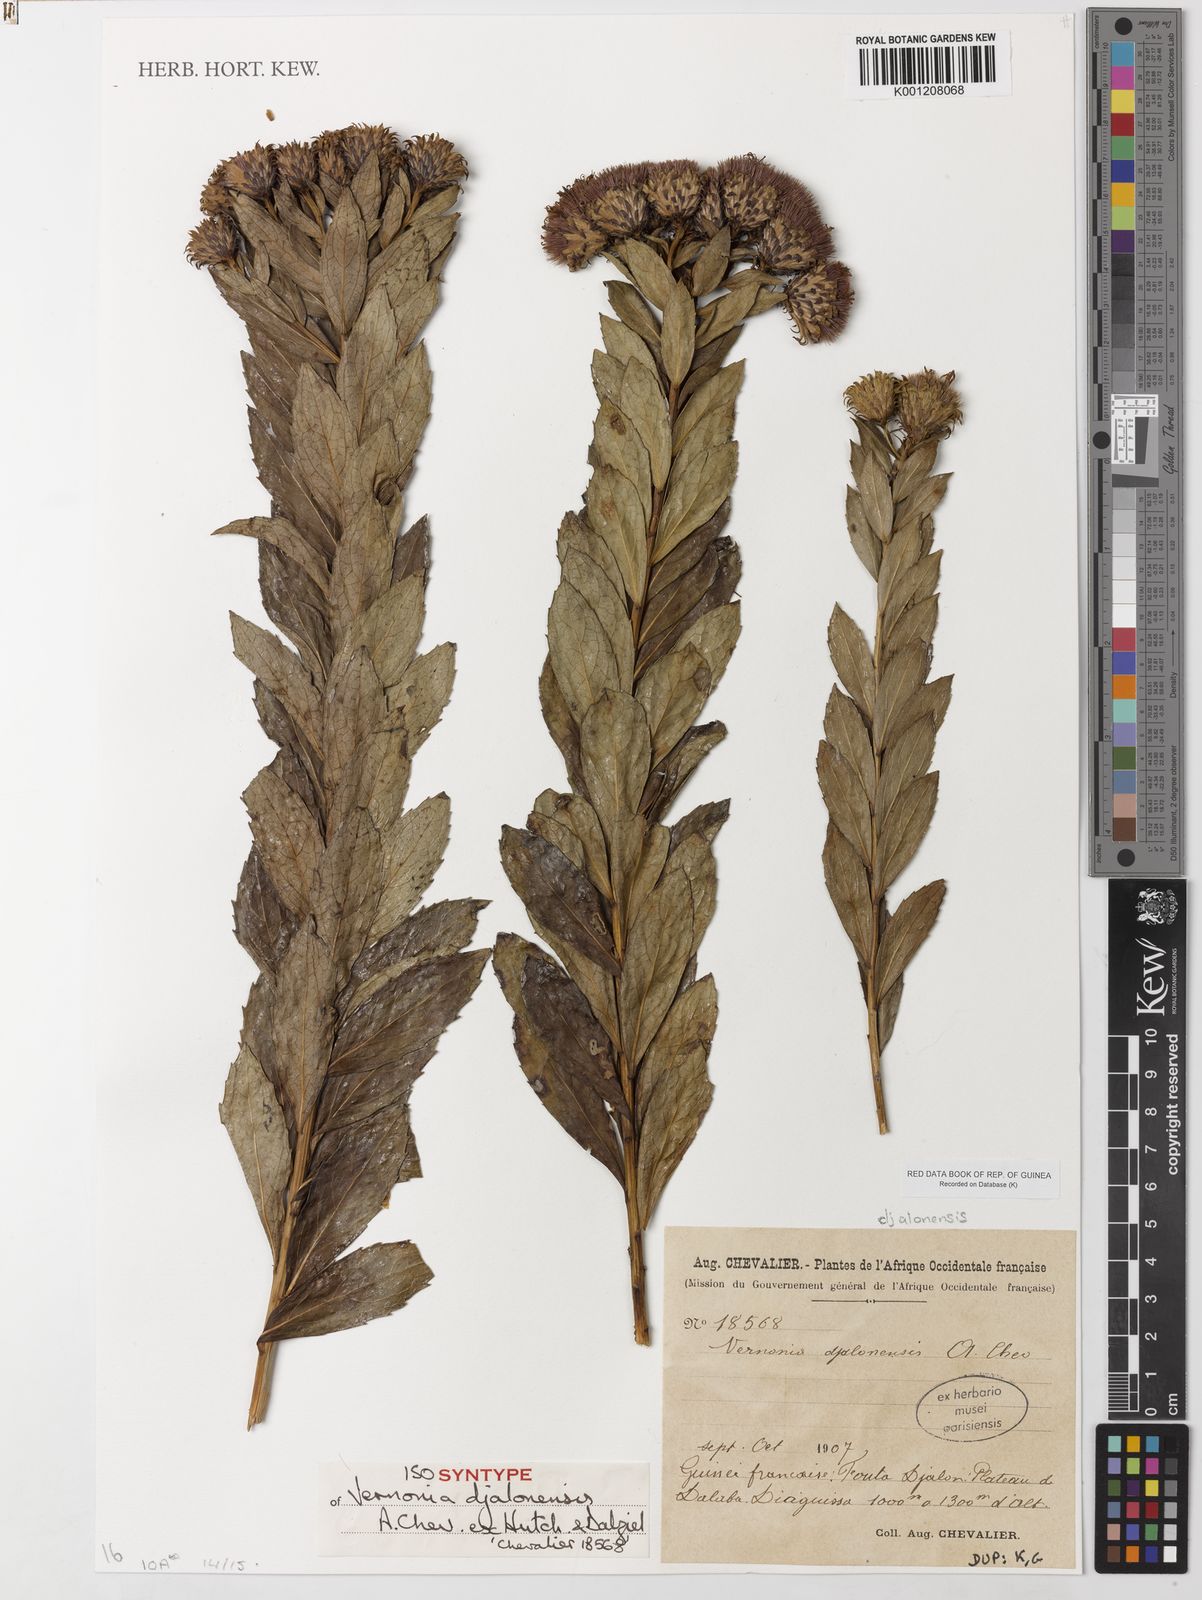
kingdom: Plantae
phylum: Tracheophyta
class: Magnoliopsida
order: Asterales
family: Asteraceae
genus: Vernonia
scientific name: Vernonia
